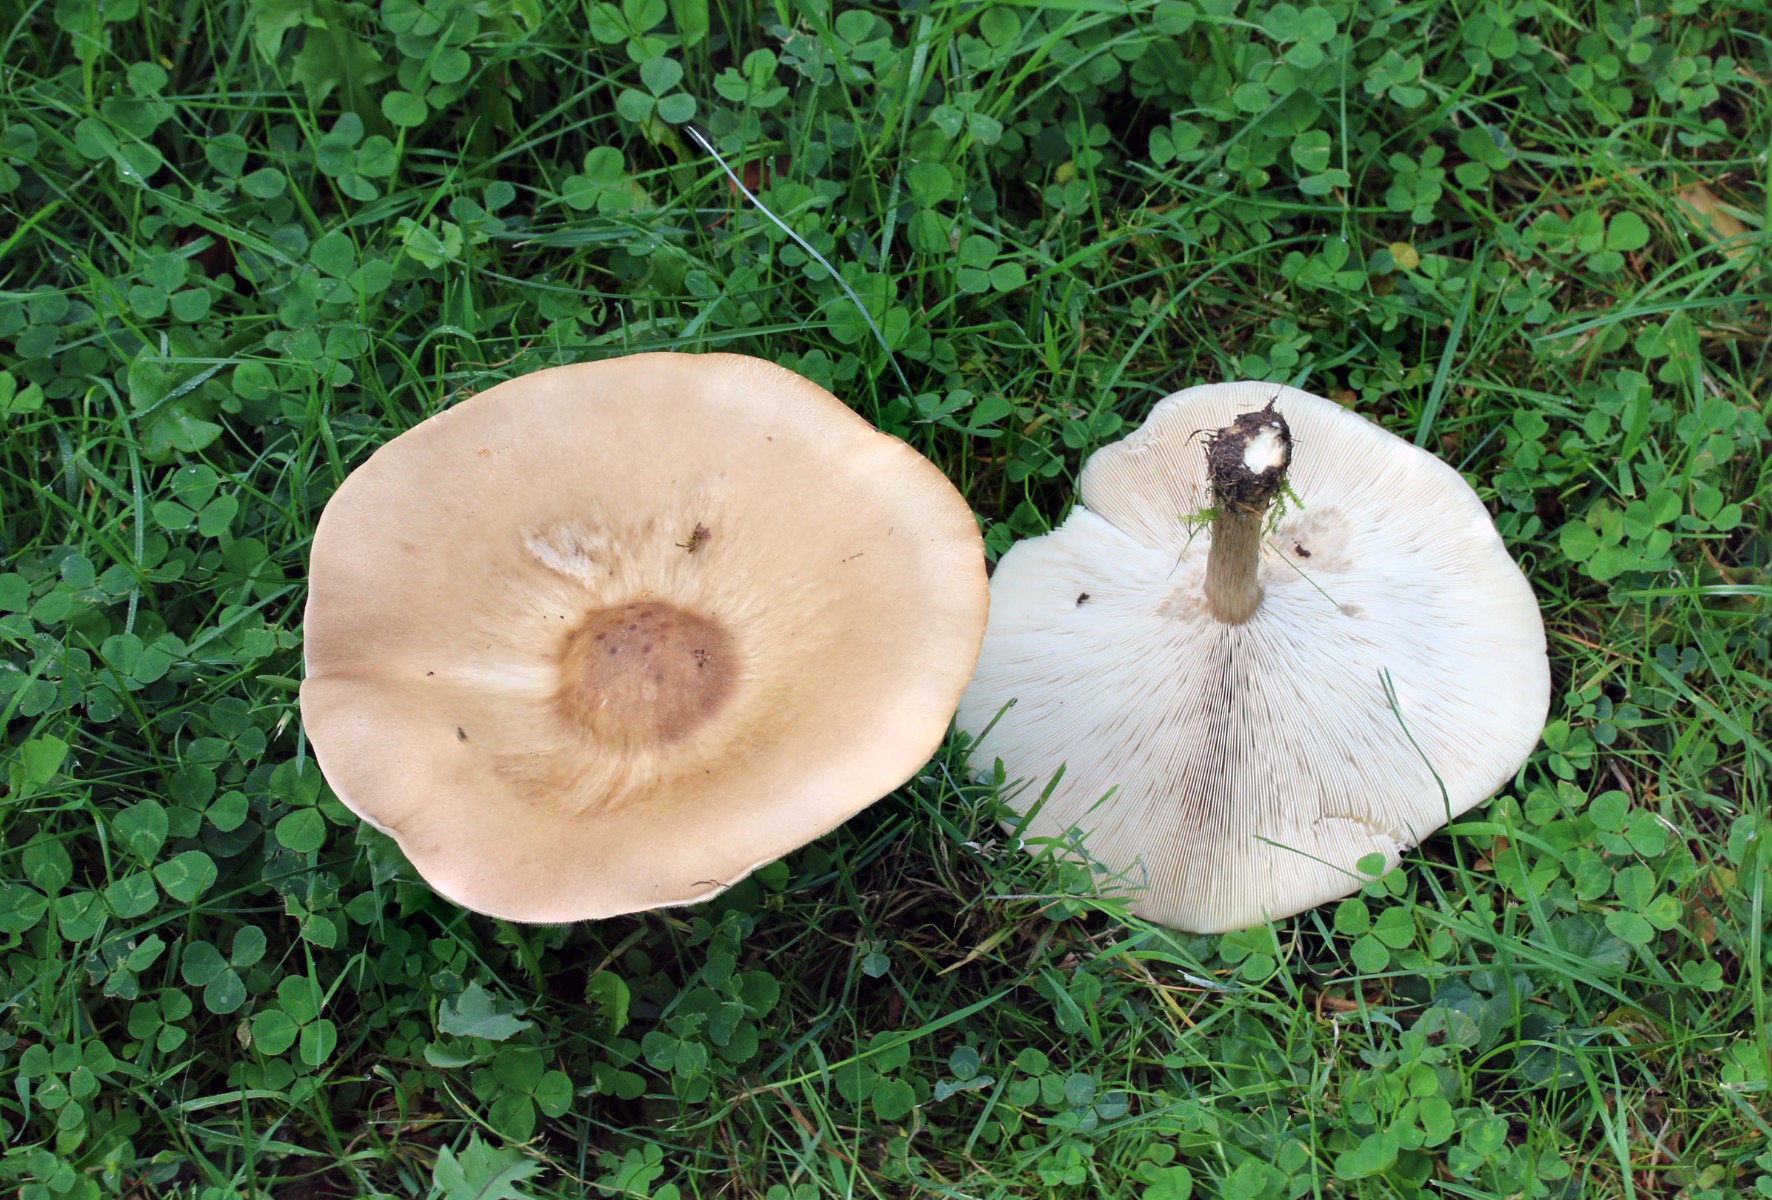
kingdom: Fungi
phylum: Basidiomycota
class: Agaricomycetes
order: Agaricales
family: Tricholomataceae
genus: Melanoleuca
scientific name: Melanoleuca grammopodia
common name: stribestokket munkehat
